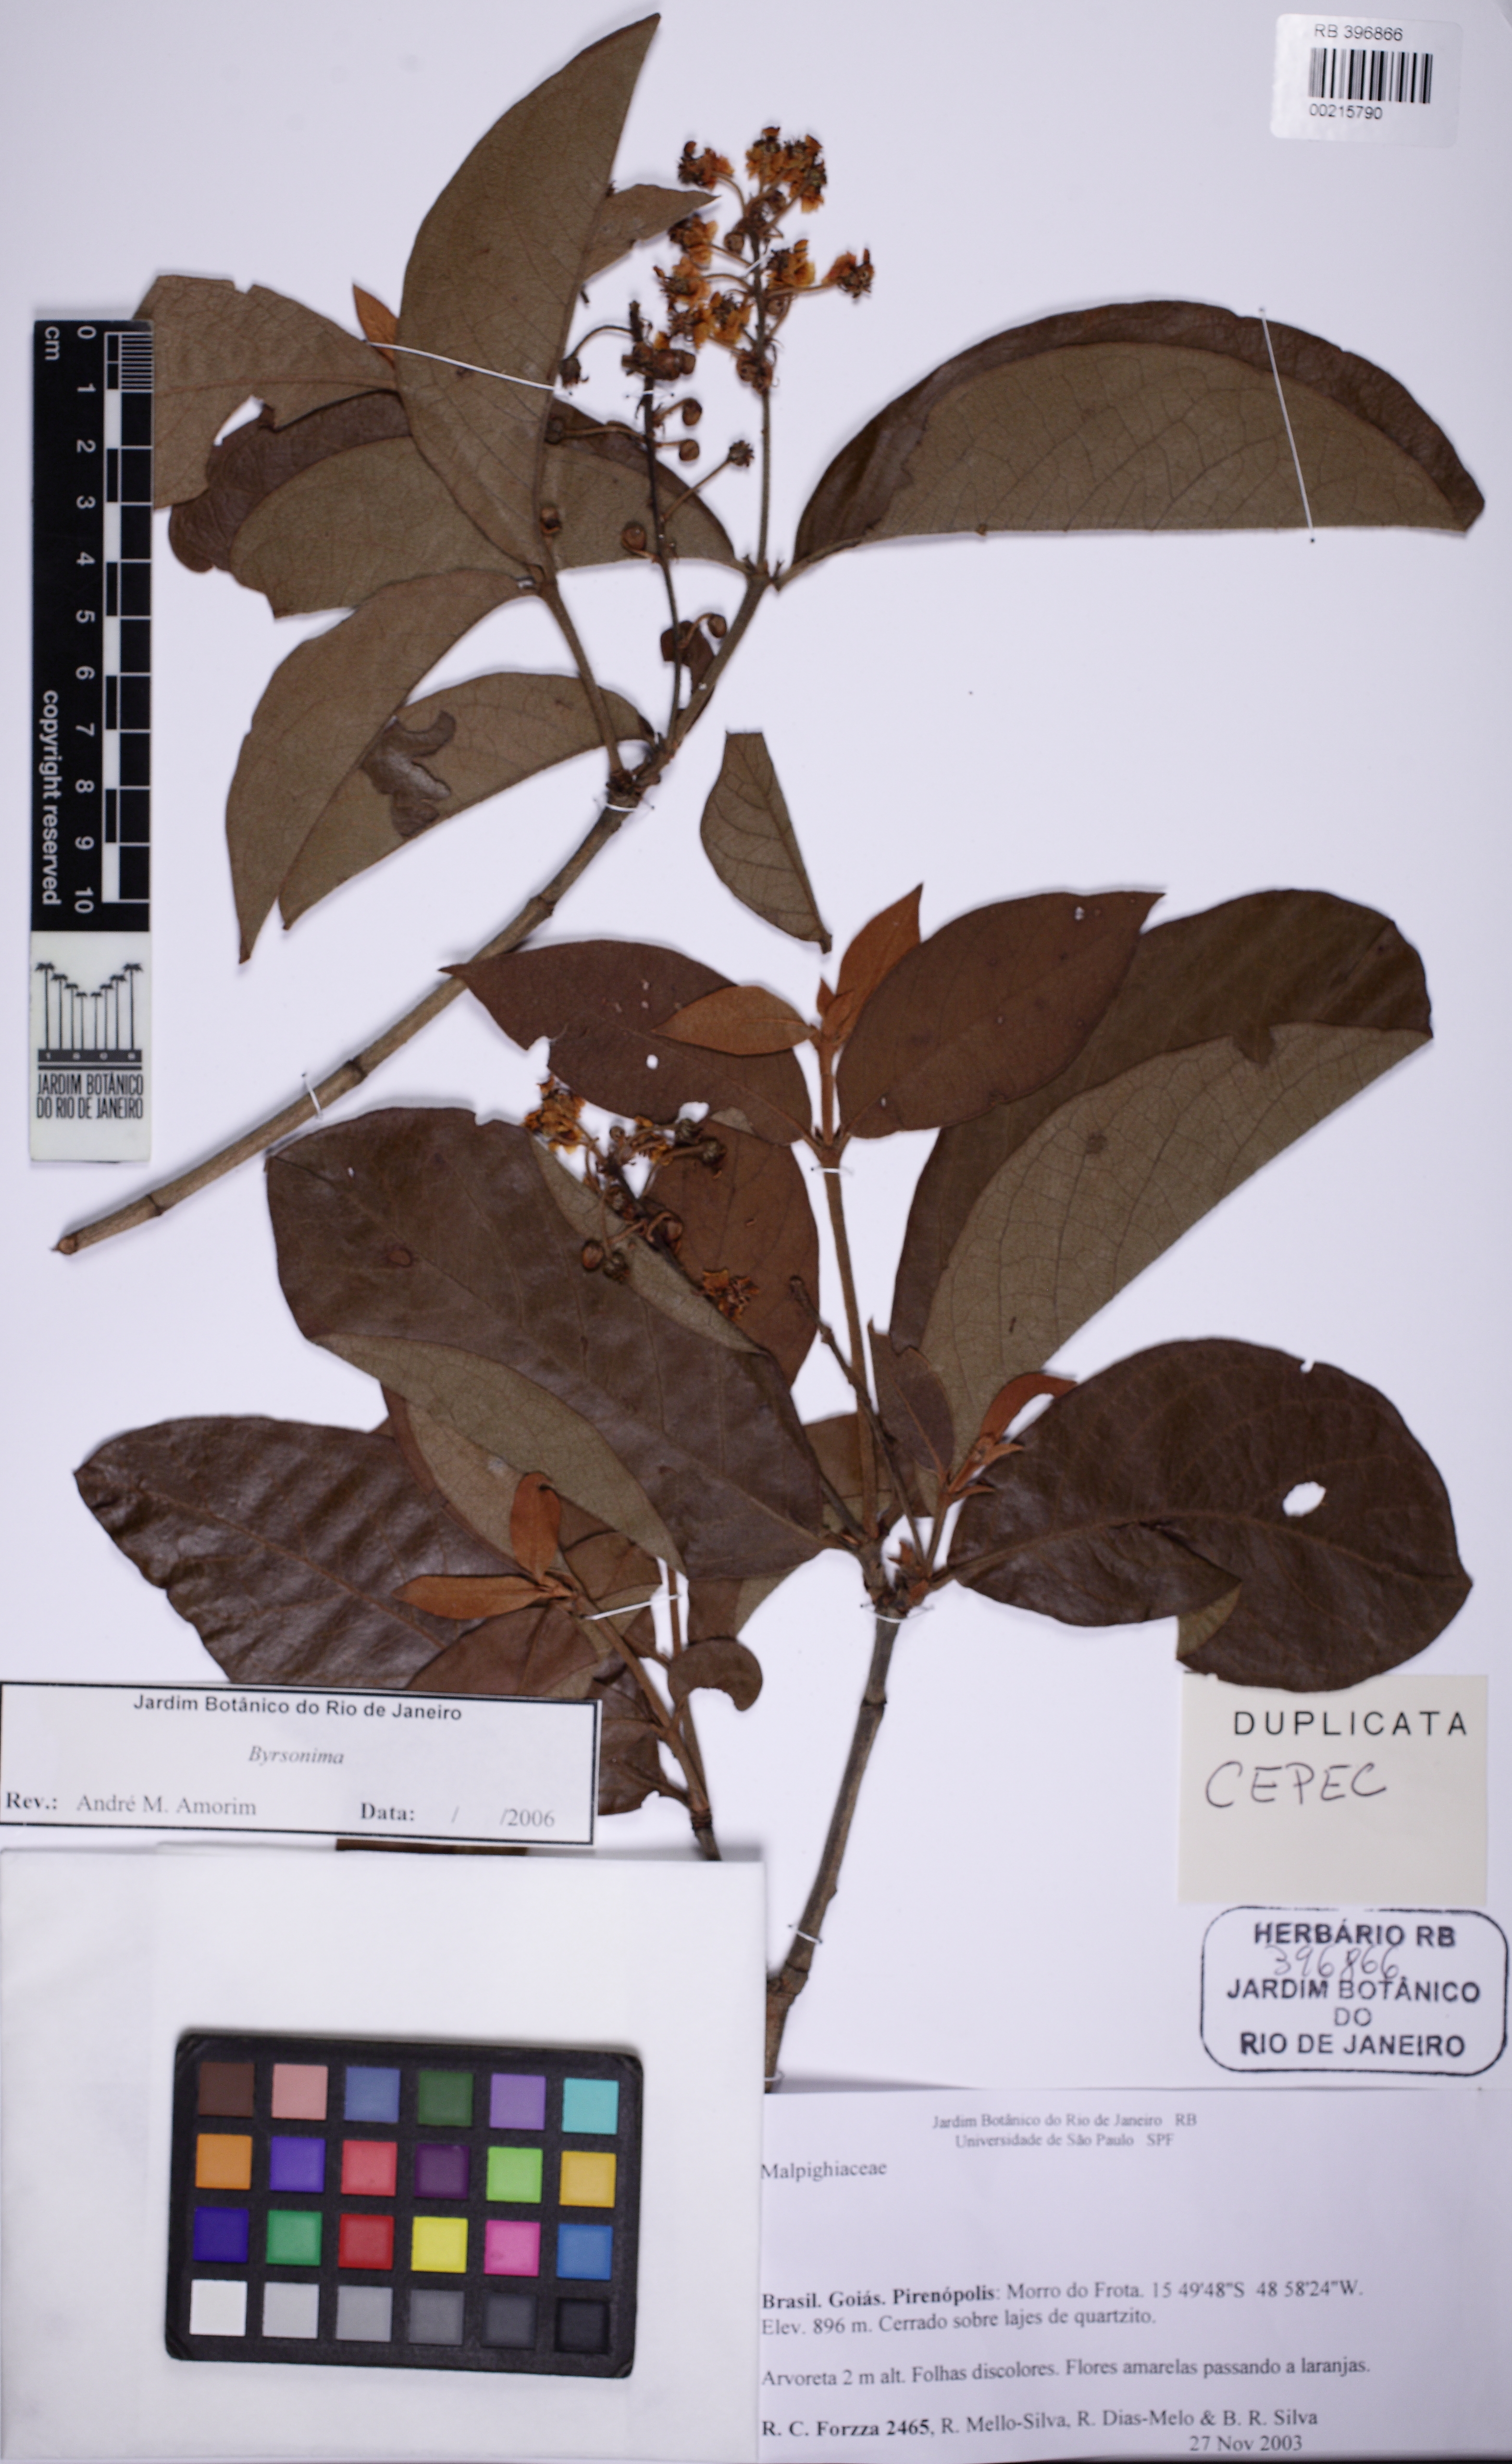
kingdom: Plantae
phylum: Tracheophyta
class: Magnoliopsida
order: Malpighiales
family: Malpighiaceae
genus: Byrsonima
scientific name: Byrsonima crassifolia
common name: Golden spoon
